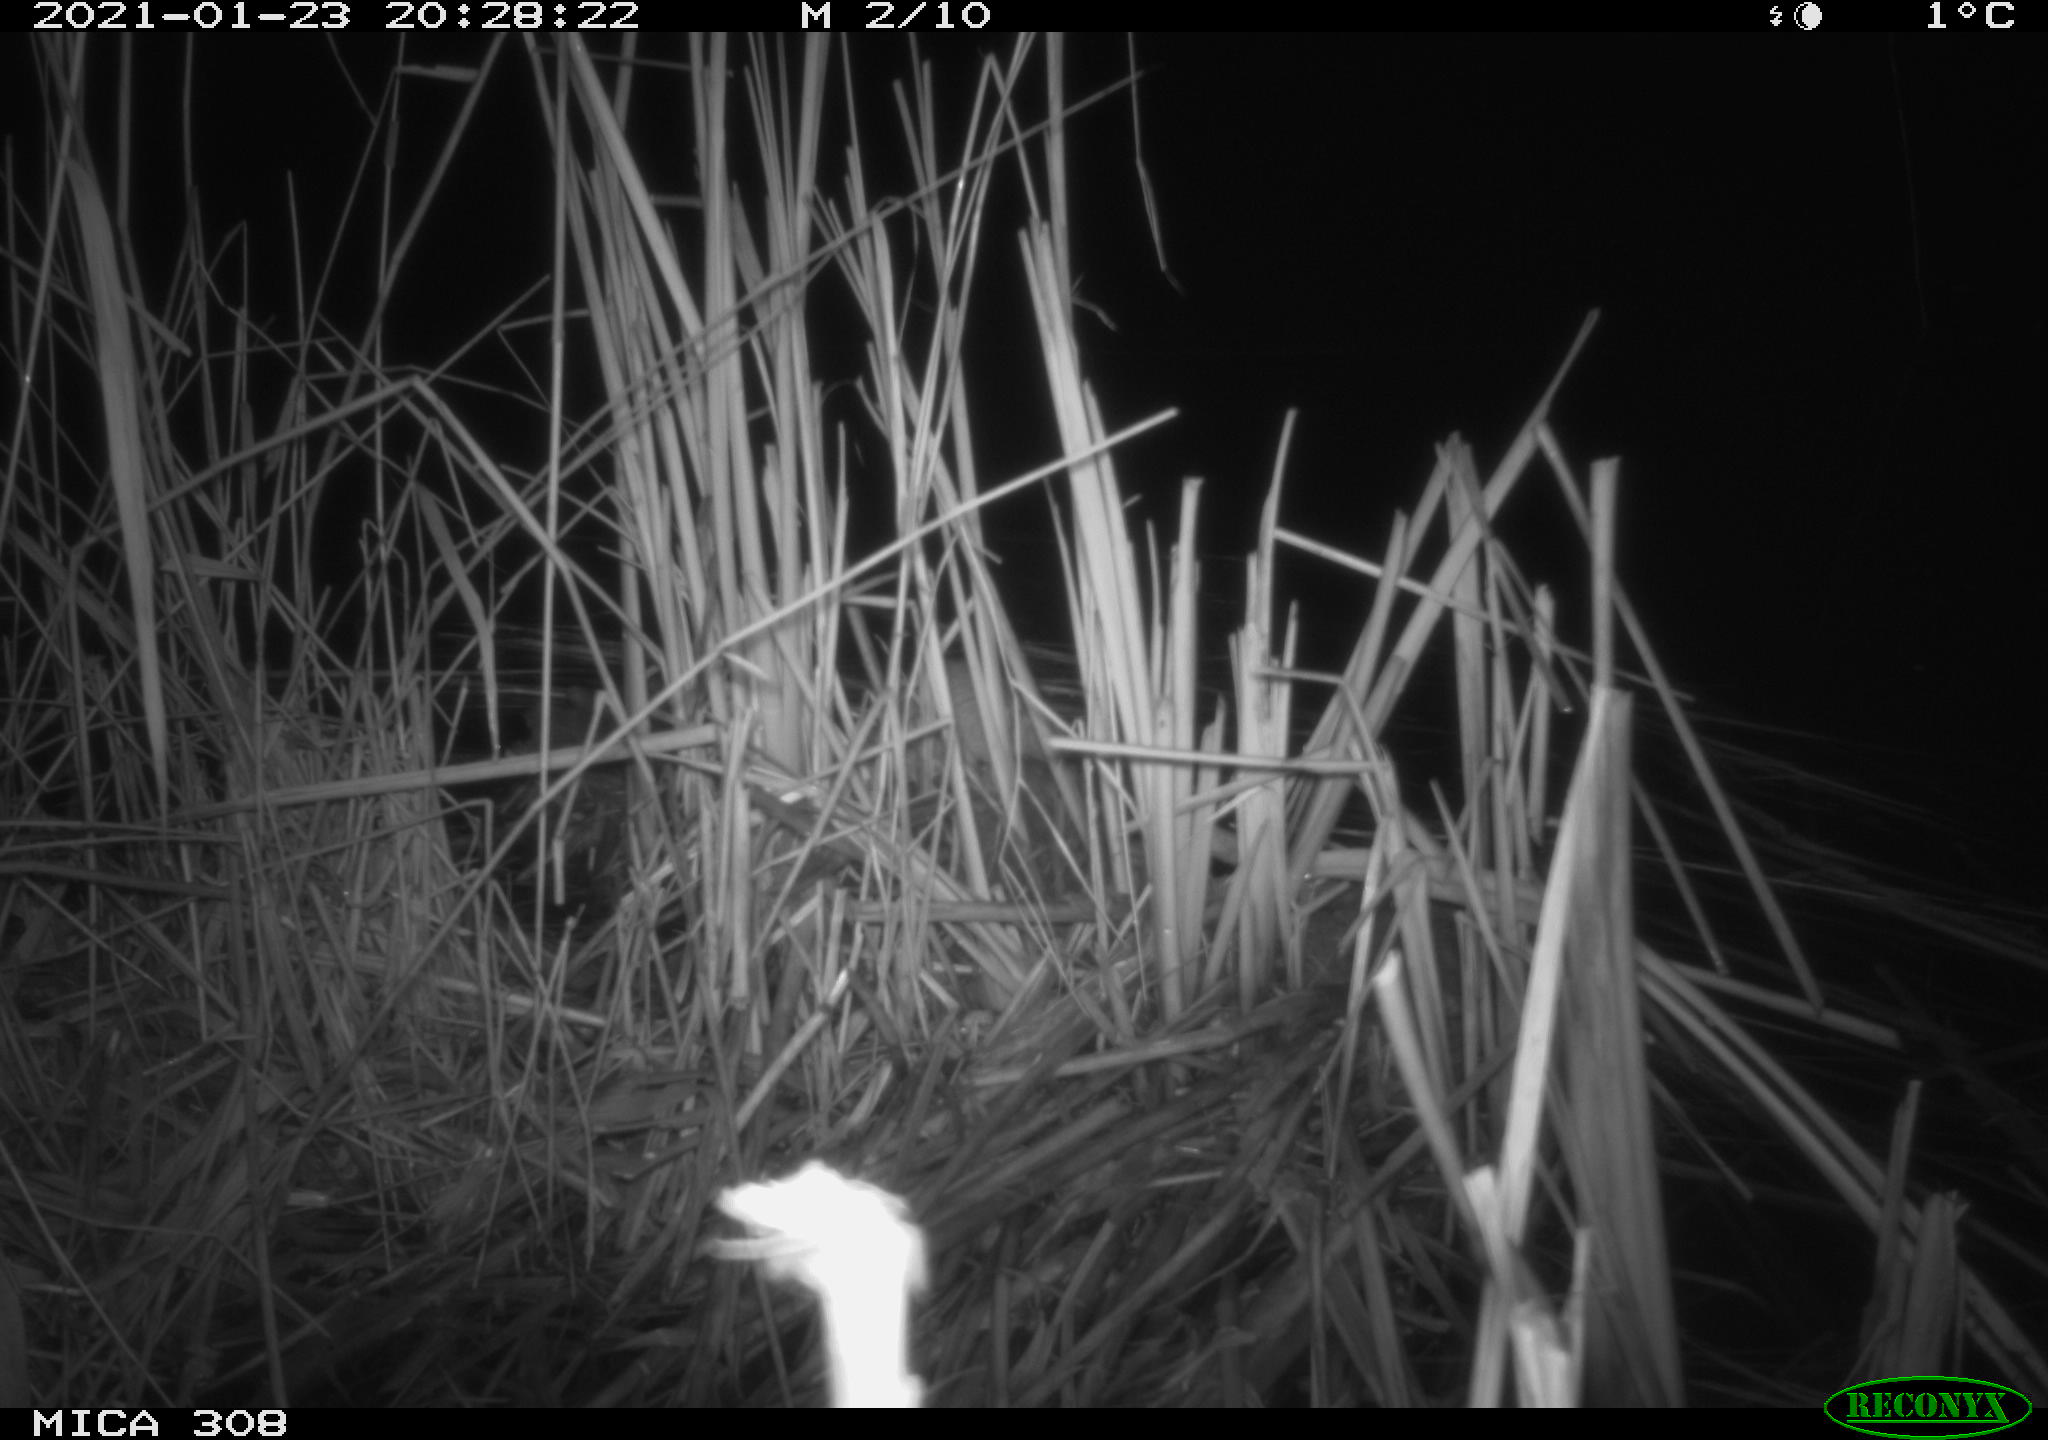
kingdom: Animalia
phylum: Chordata
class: Mammalia
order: Rodentia
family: Muridae
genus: Rattus
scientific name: Rattus norvegicus
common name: Brown rat
